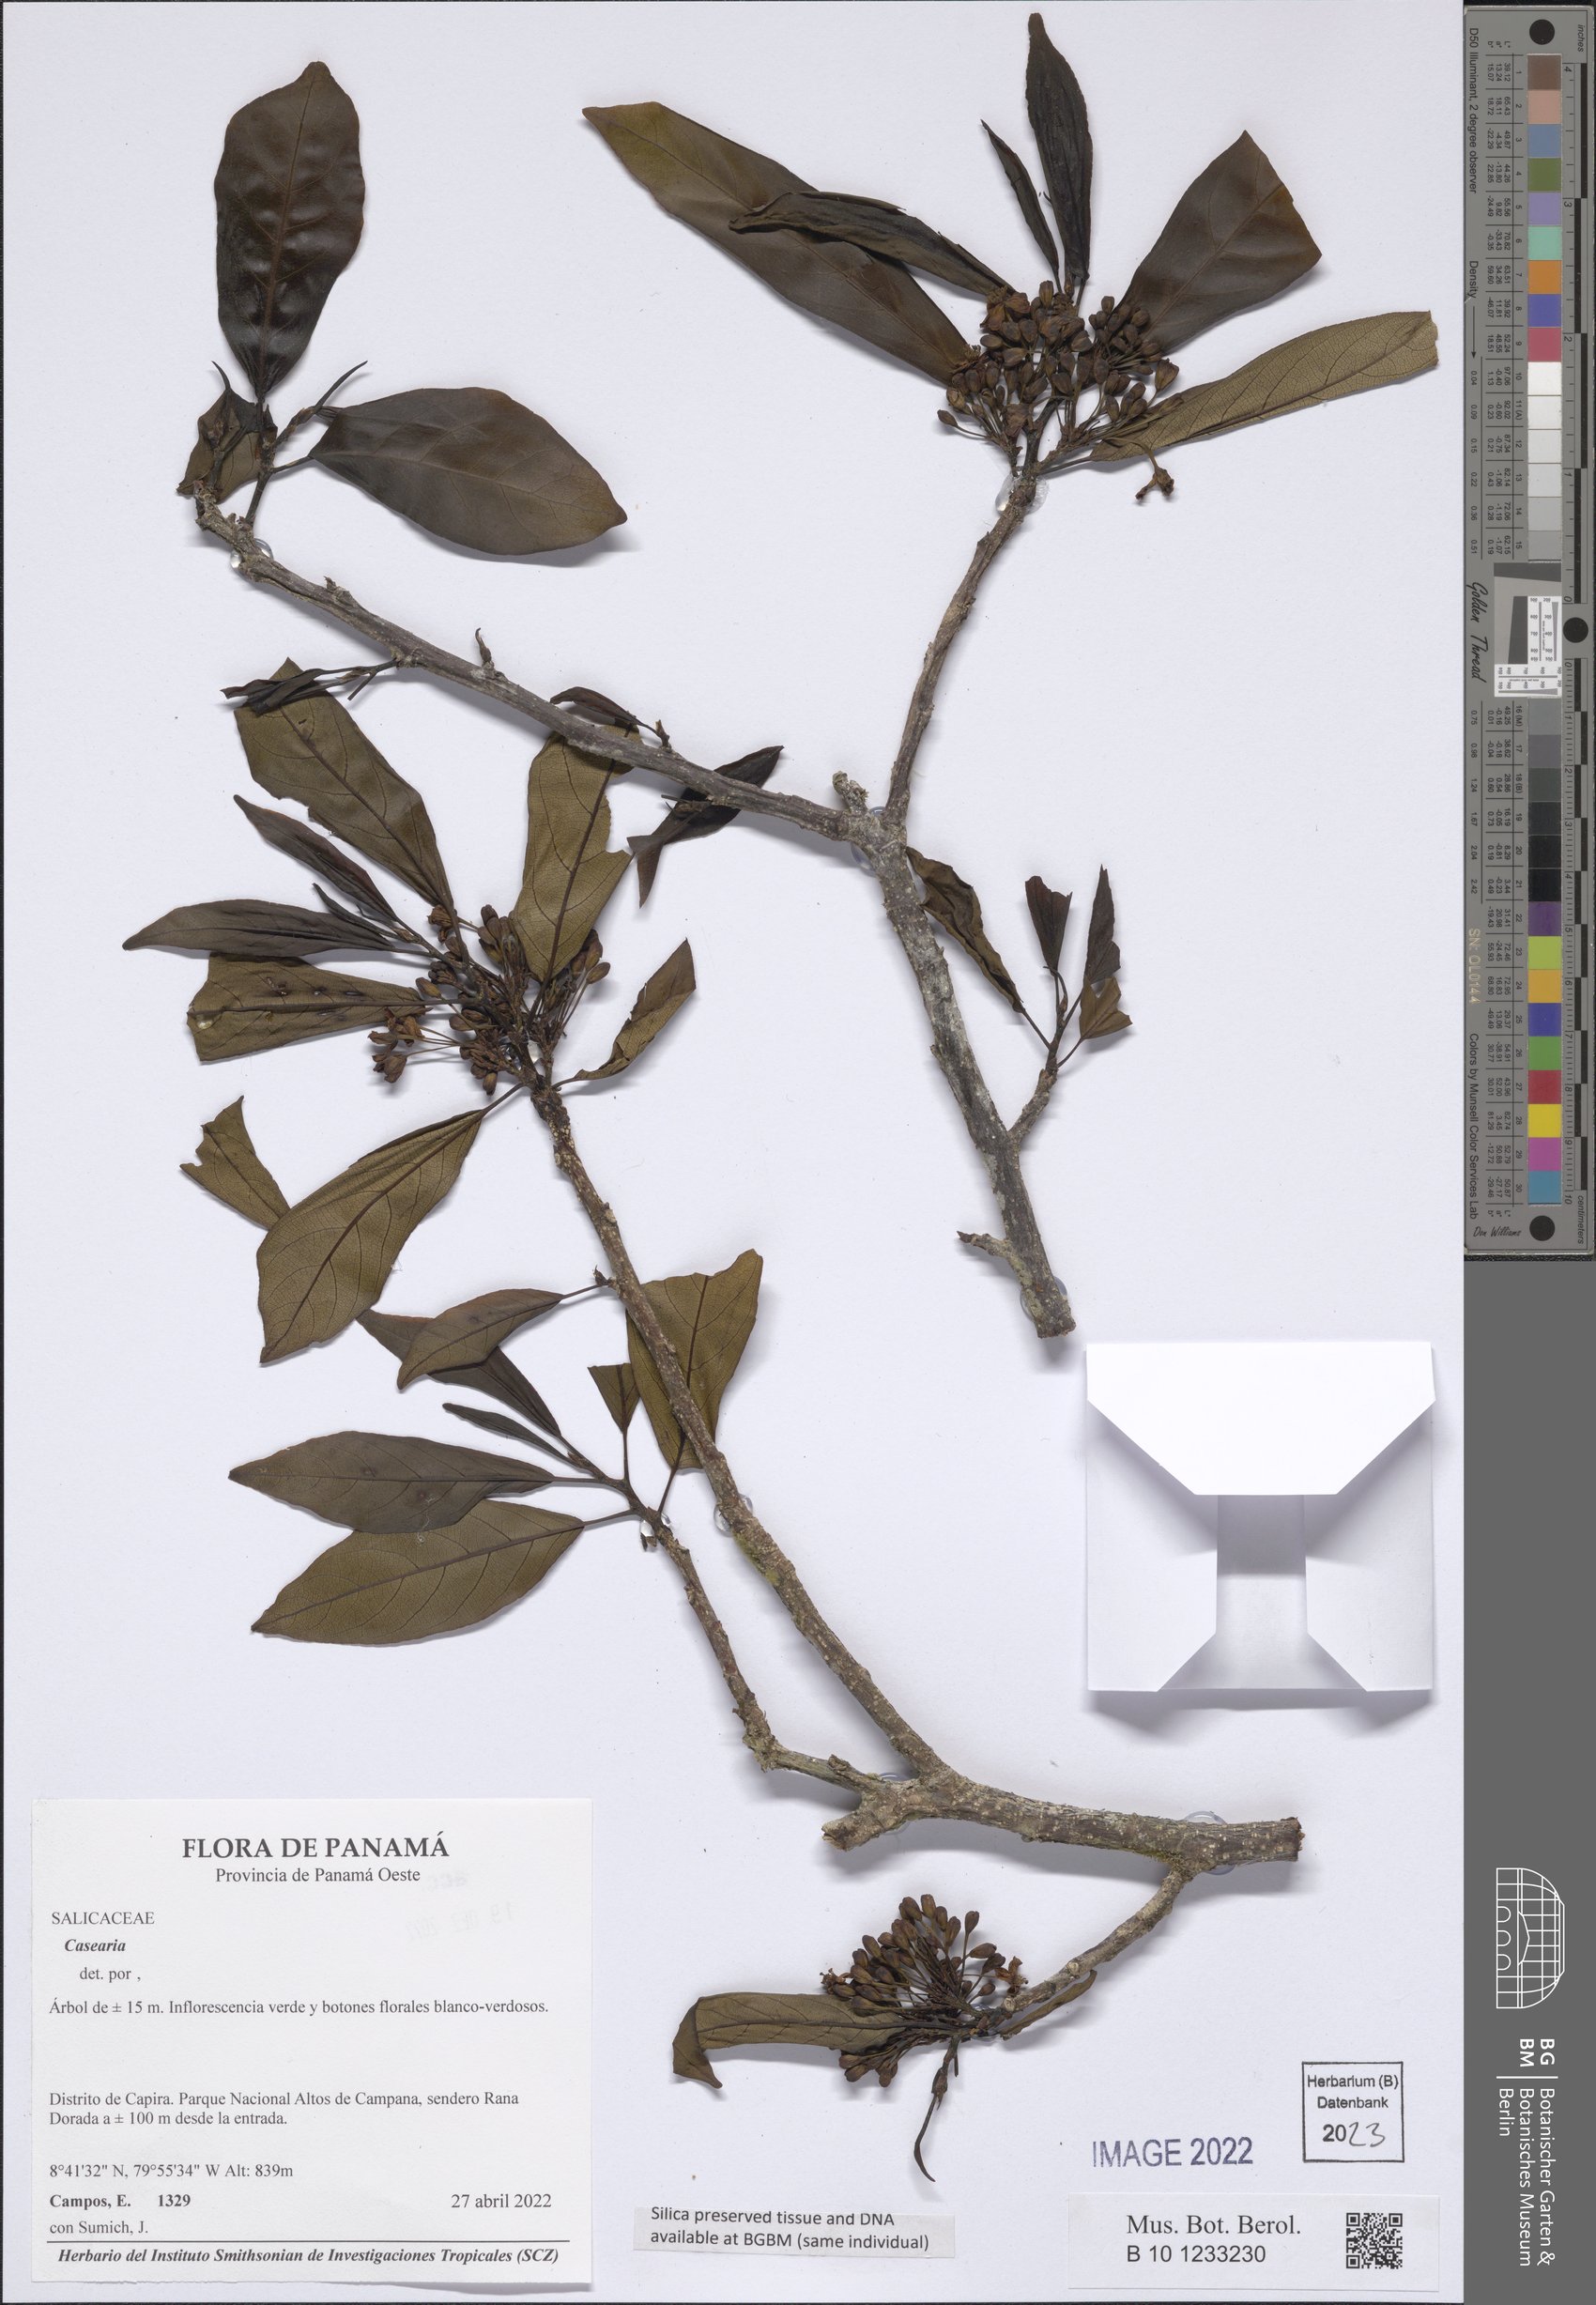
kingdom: Plantae
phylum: Tracheophyta
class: Magnoliopsida
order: Malpighiales
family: Salicaceae
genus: Casearia
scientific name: Casearia
